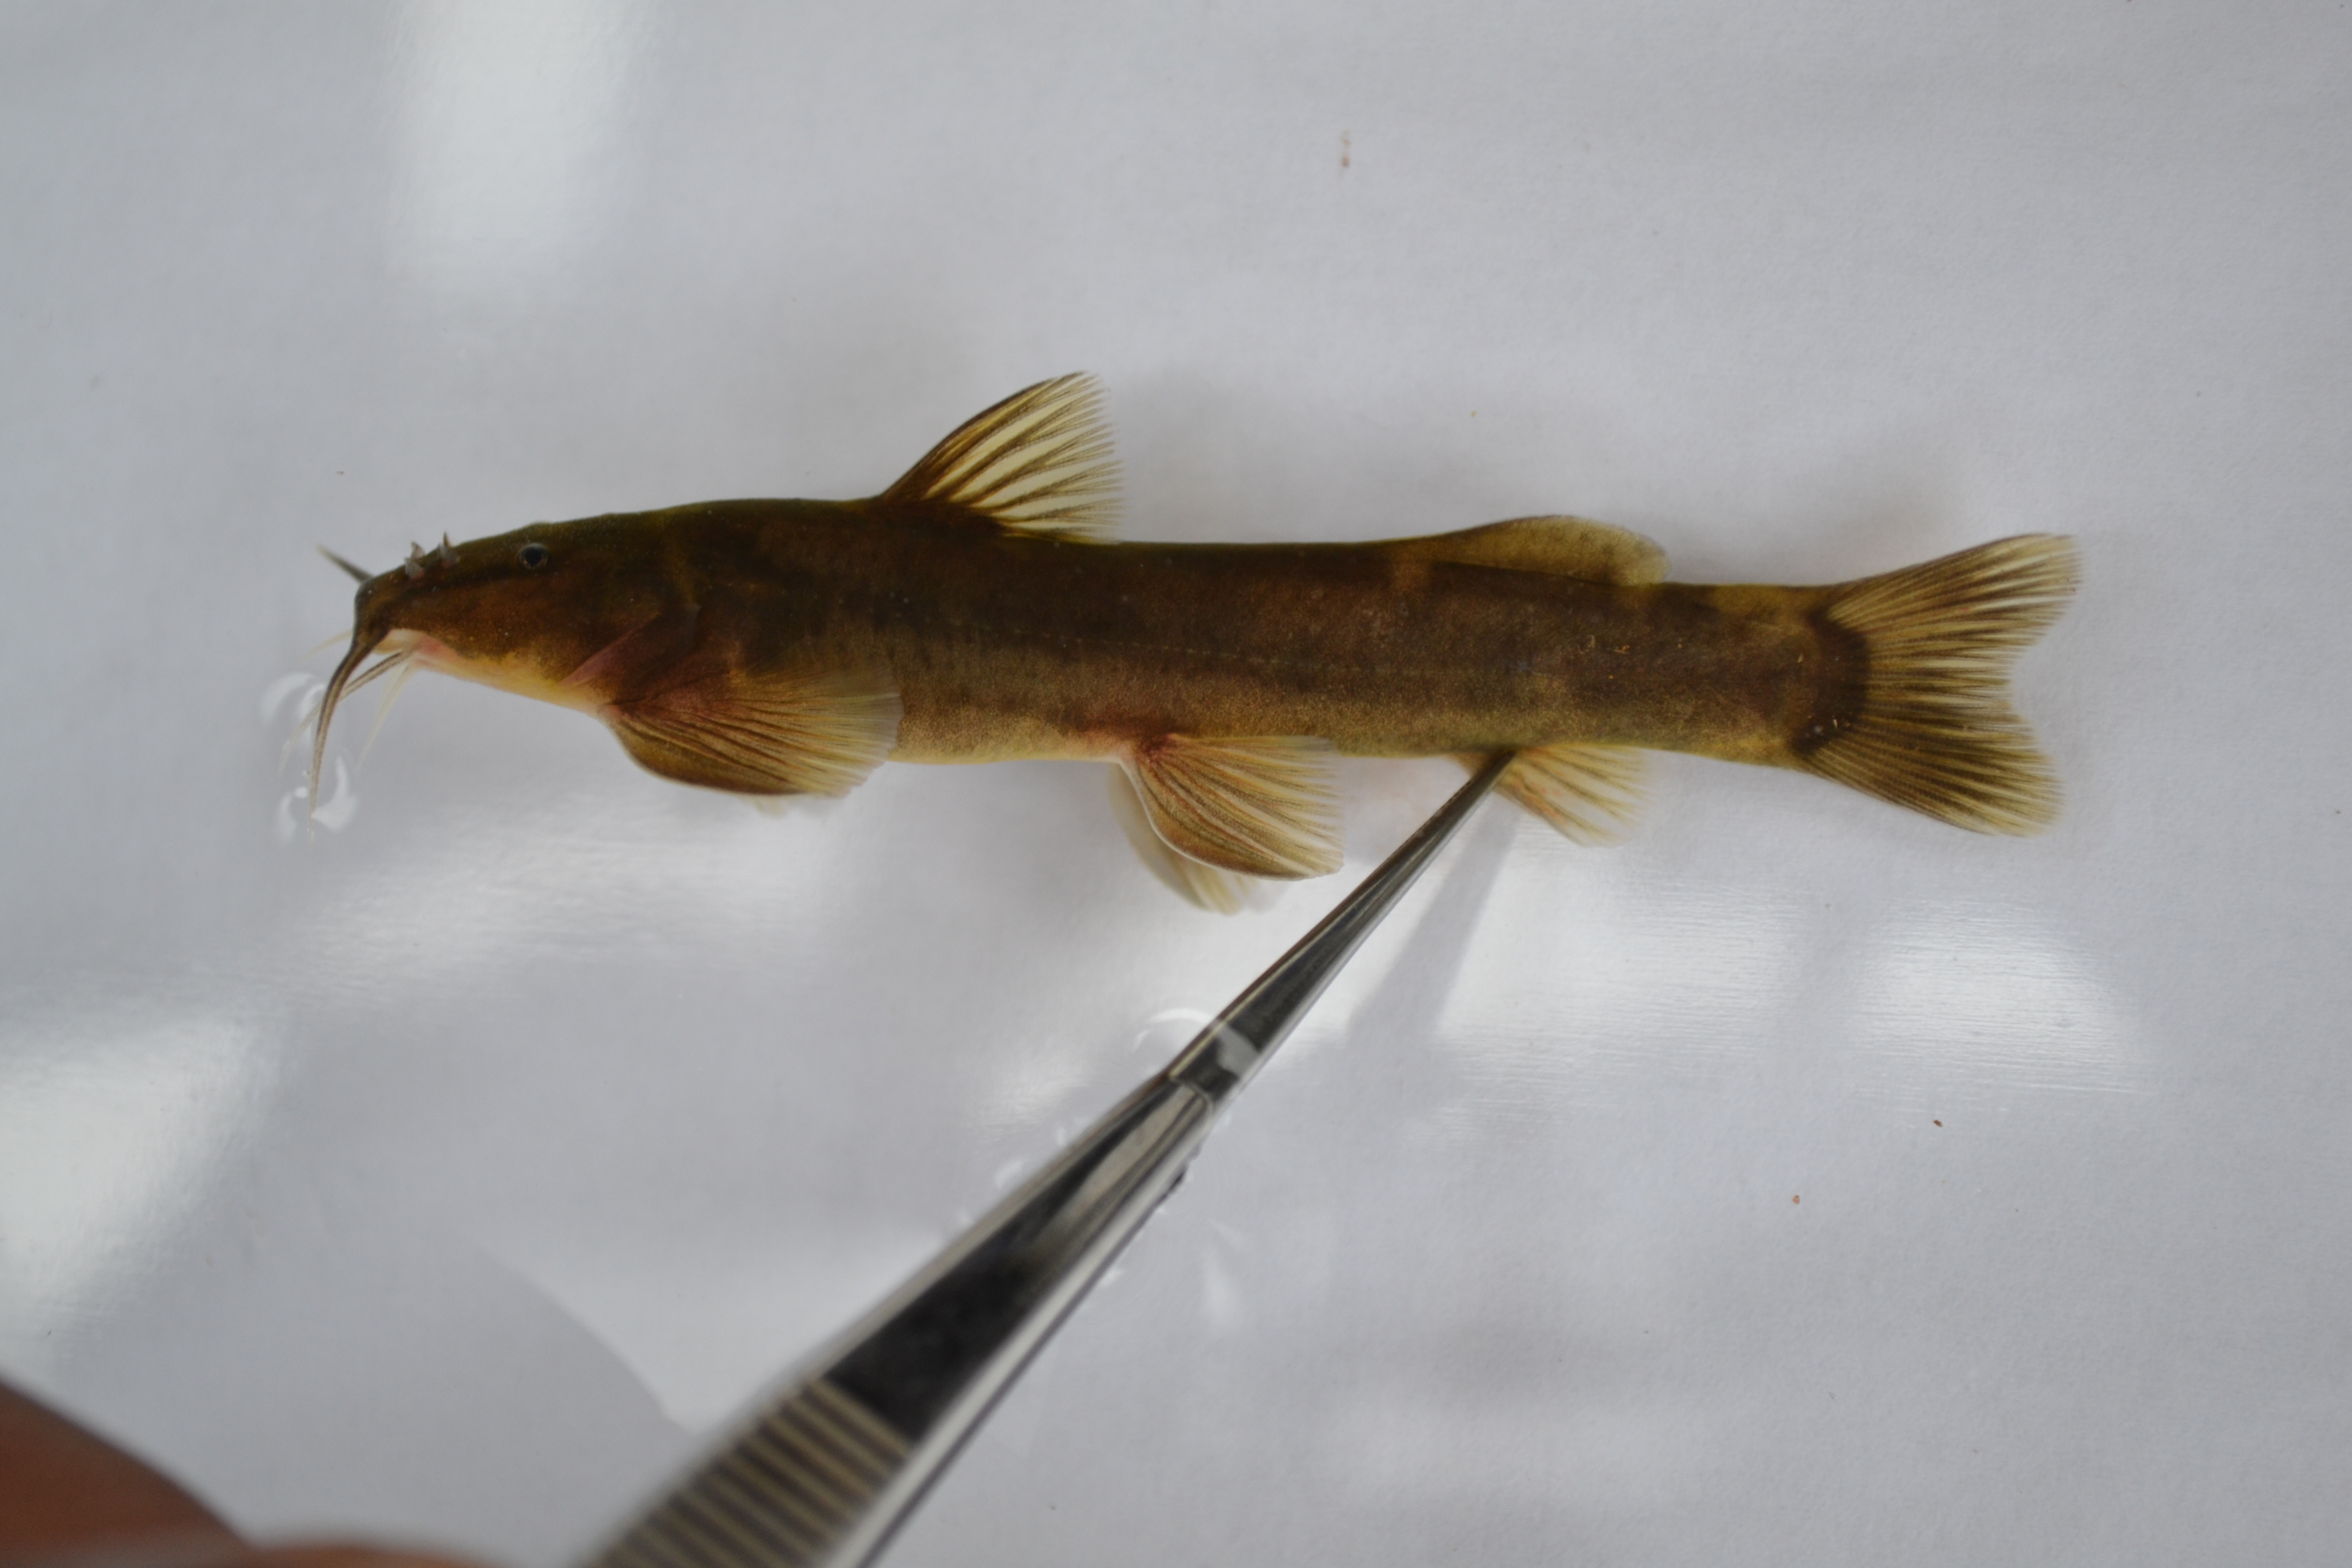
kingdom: Animalia
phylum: Chordata
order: Siluriformes
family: Amphiliidae
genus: Amphilius
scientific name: Amphilius uranoscopus
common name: Stargazer mountain catfish
